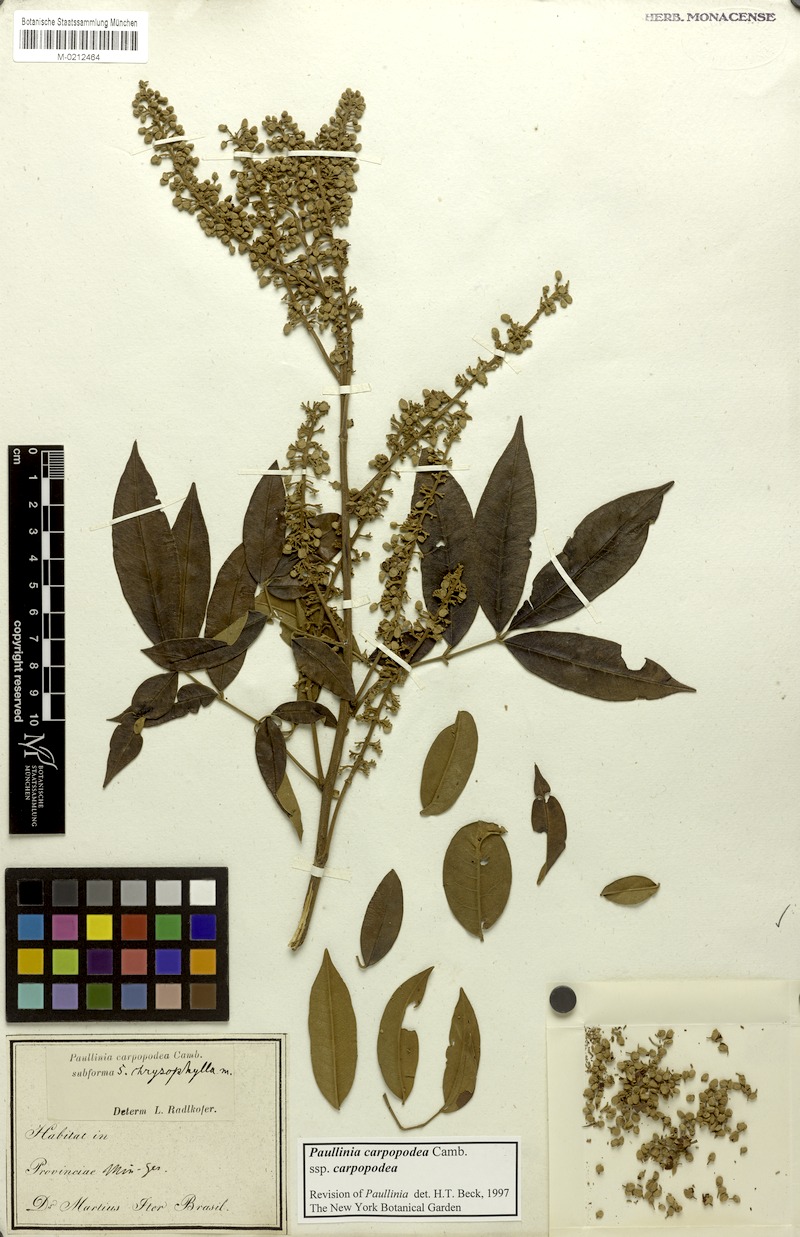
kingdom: Plantae
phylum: Tracheophyta
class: Magnoliopsida
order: Sapindales
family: Sapindaceae
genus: Paullinia
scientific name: Paullinia carpopoda
